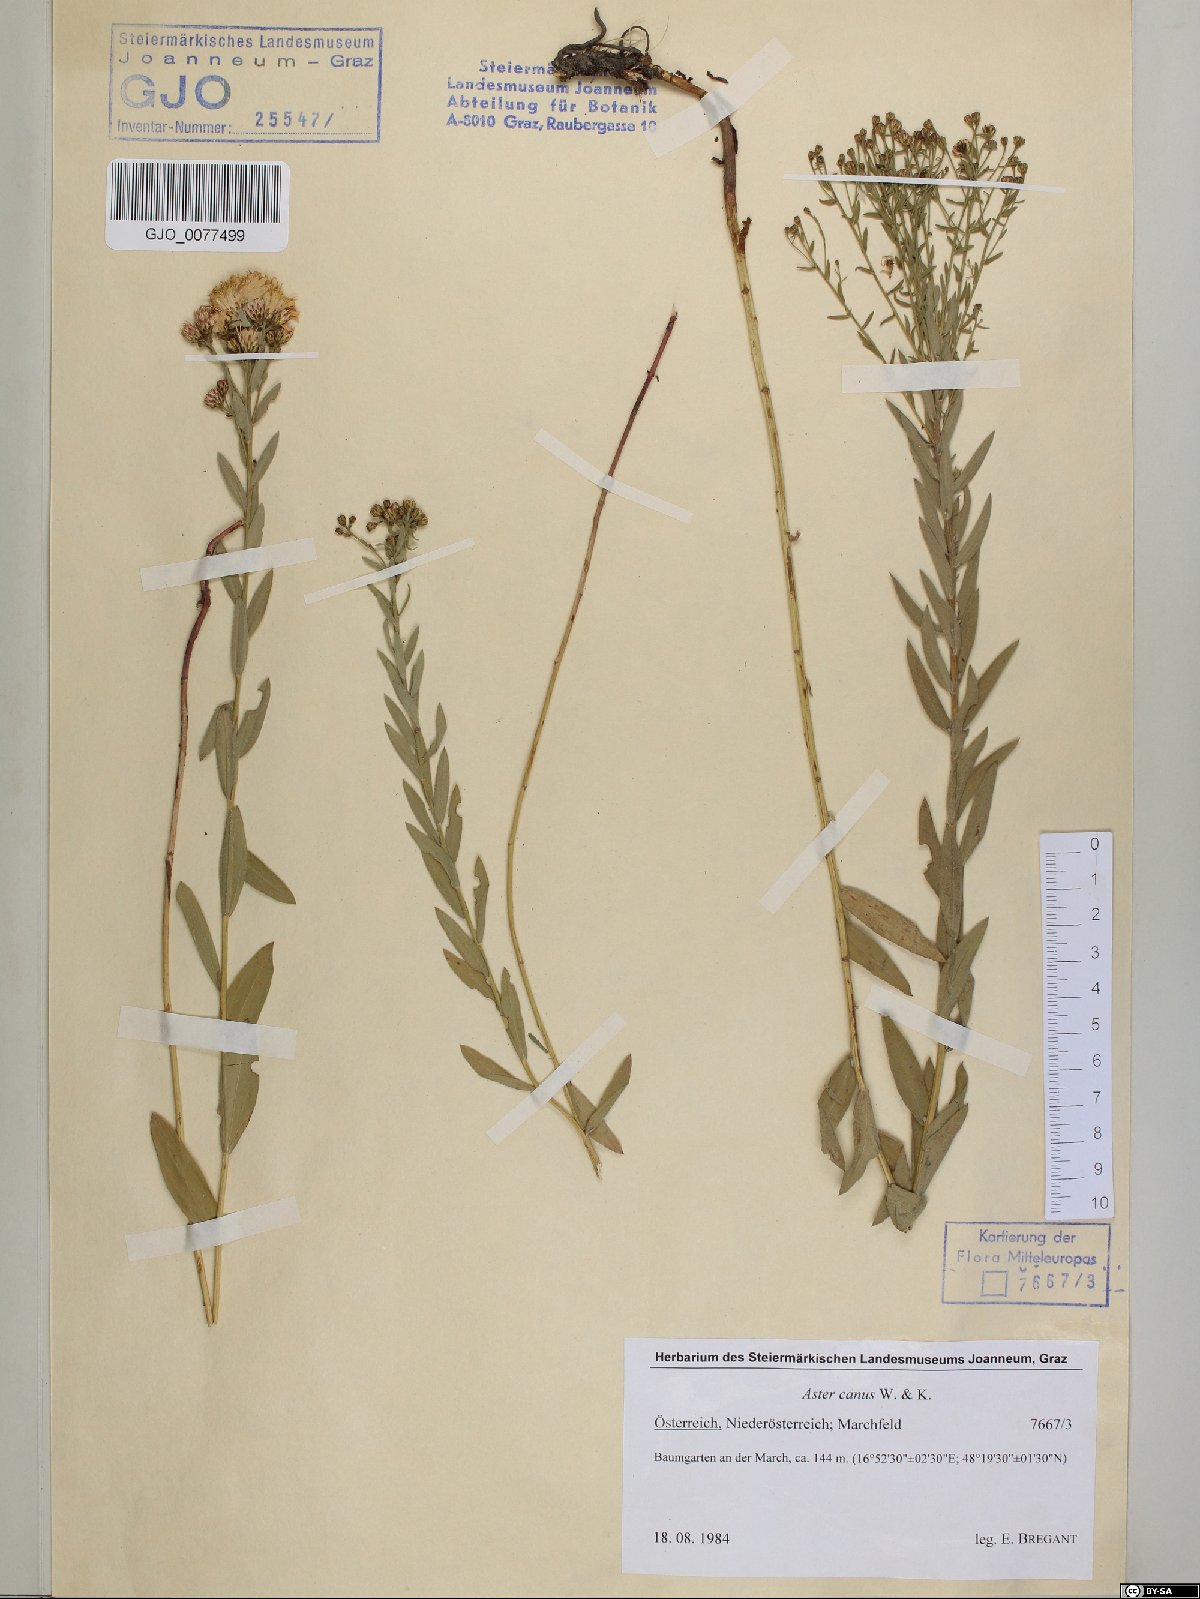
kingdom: Plantae
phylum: Tracheophyta
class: Magnoliopsida
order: Asterales
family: Asteraceae
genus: Galatella
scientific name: Galatella cana
